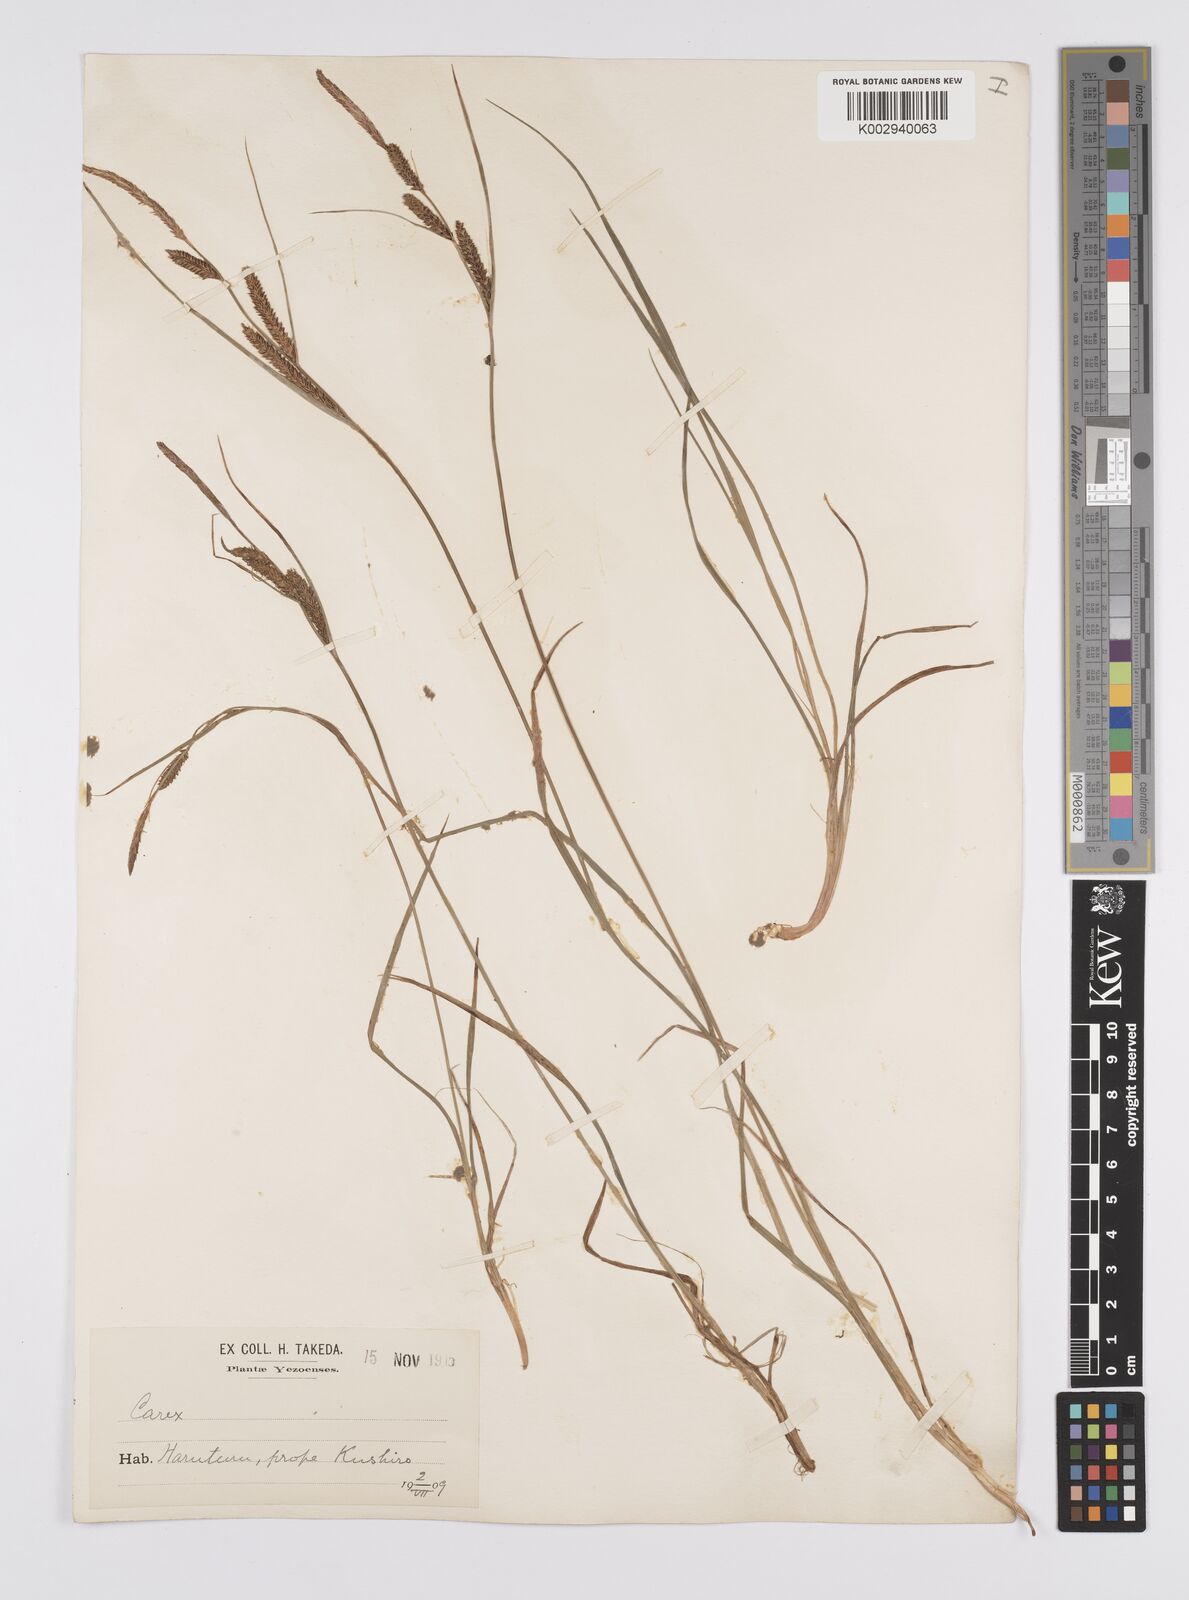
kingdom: Plantae
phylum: Tracheophyta
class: Liliopsida
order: Poales
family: Cyperaceae
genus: Carex
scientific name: Carex thunbergii
